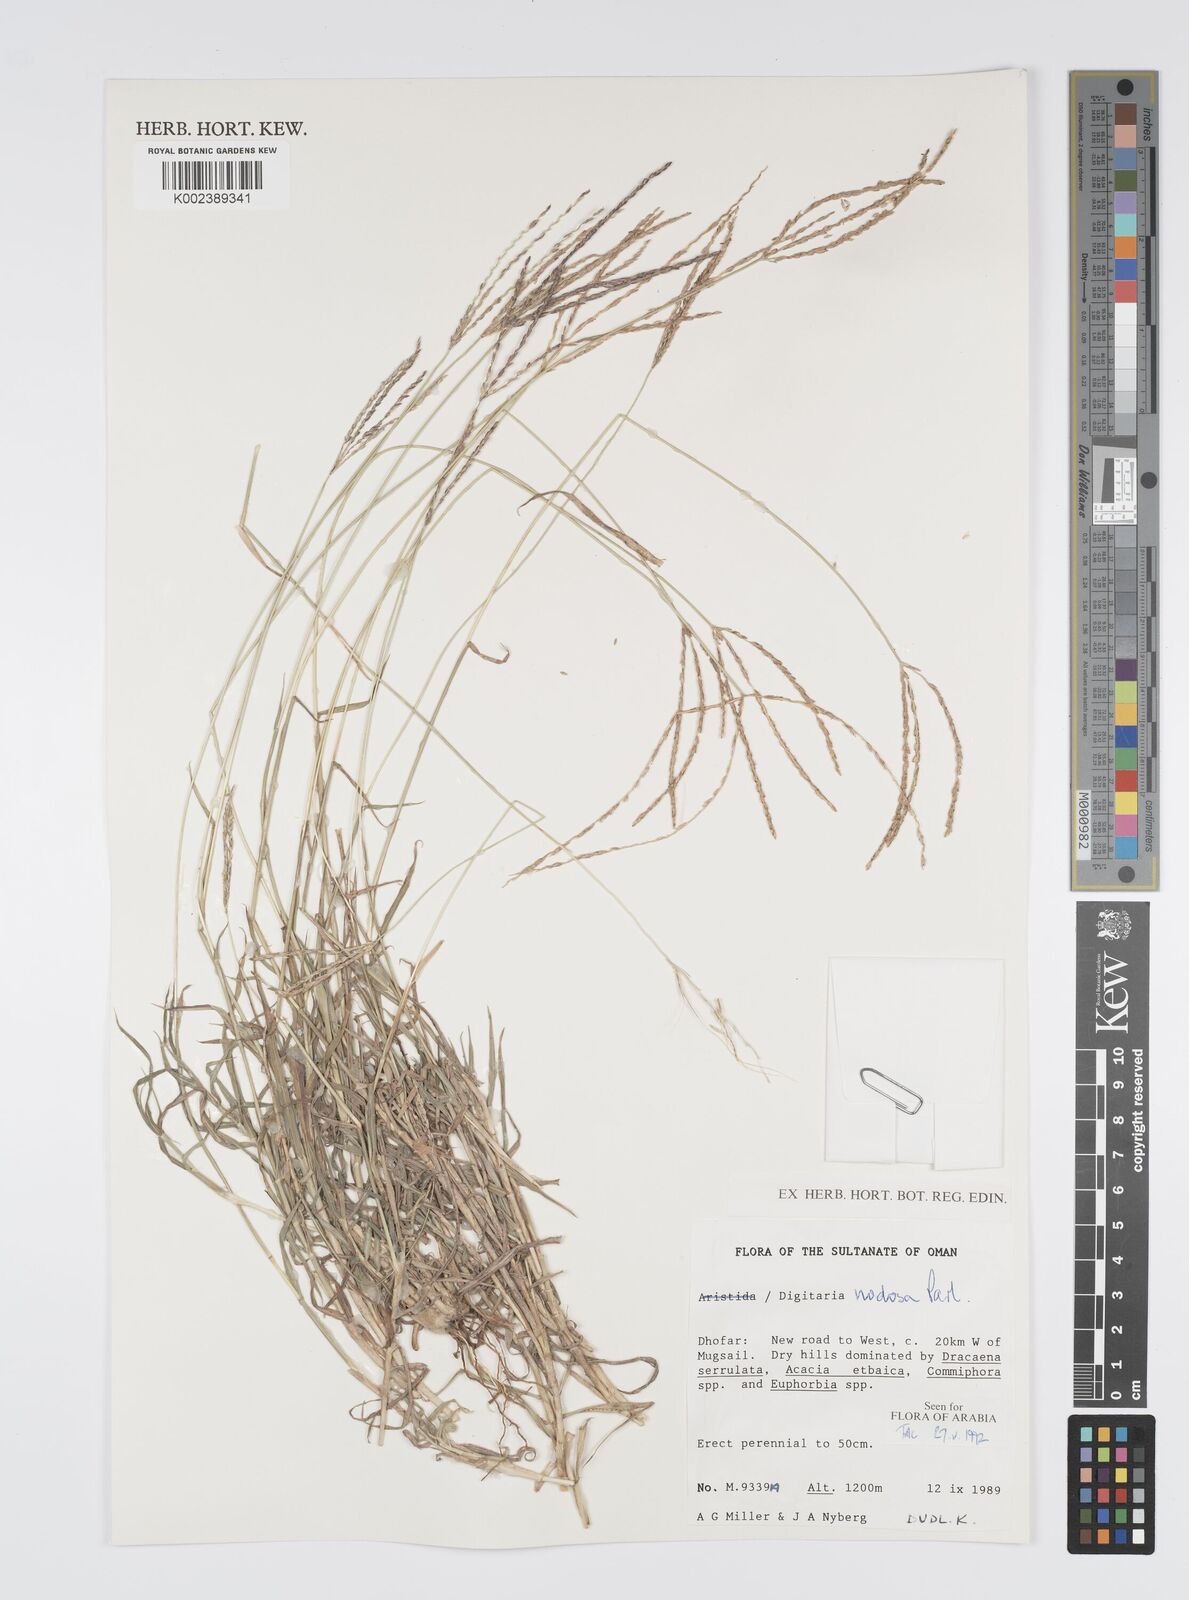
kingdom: Plantae
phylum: Tracheophyta
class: Liliopsida
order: Poales
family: Poaceae
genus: Digitaria
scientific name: Digitaria nodosa
